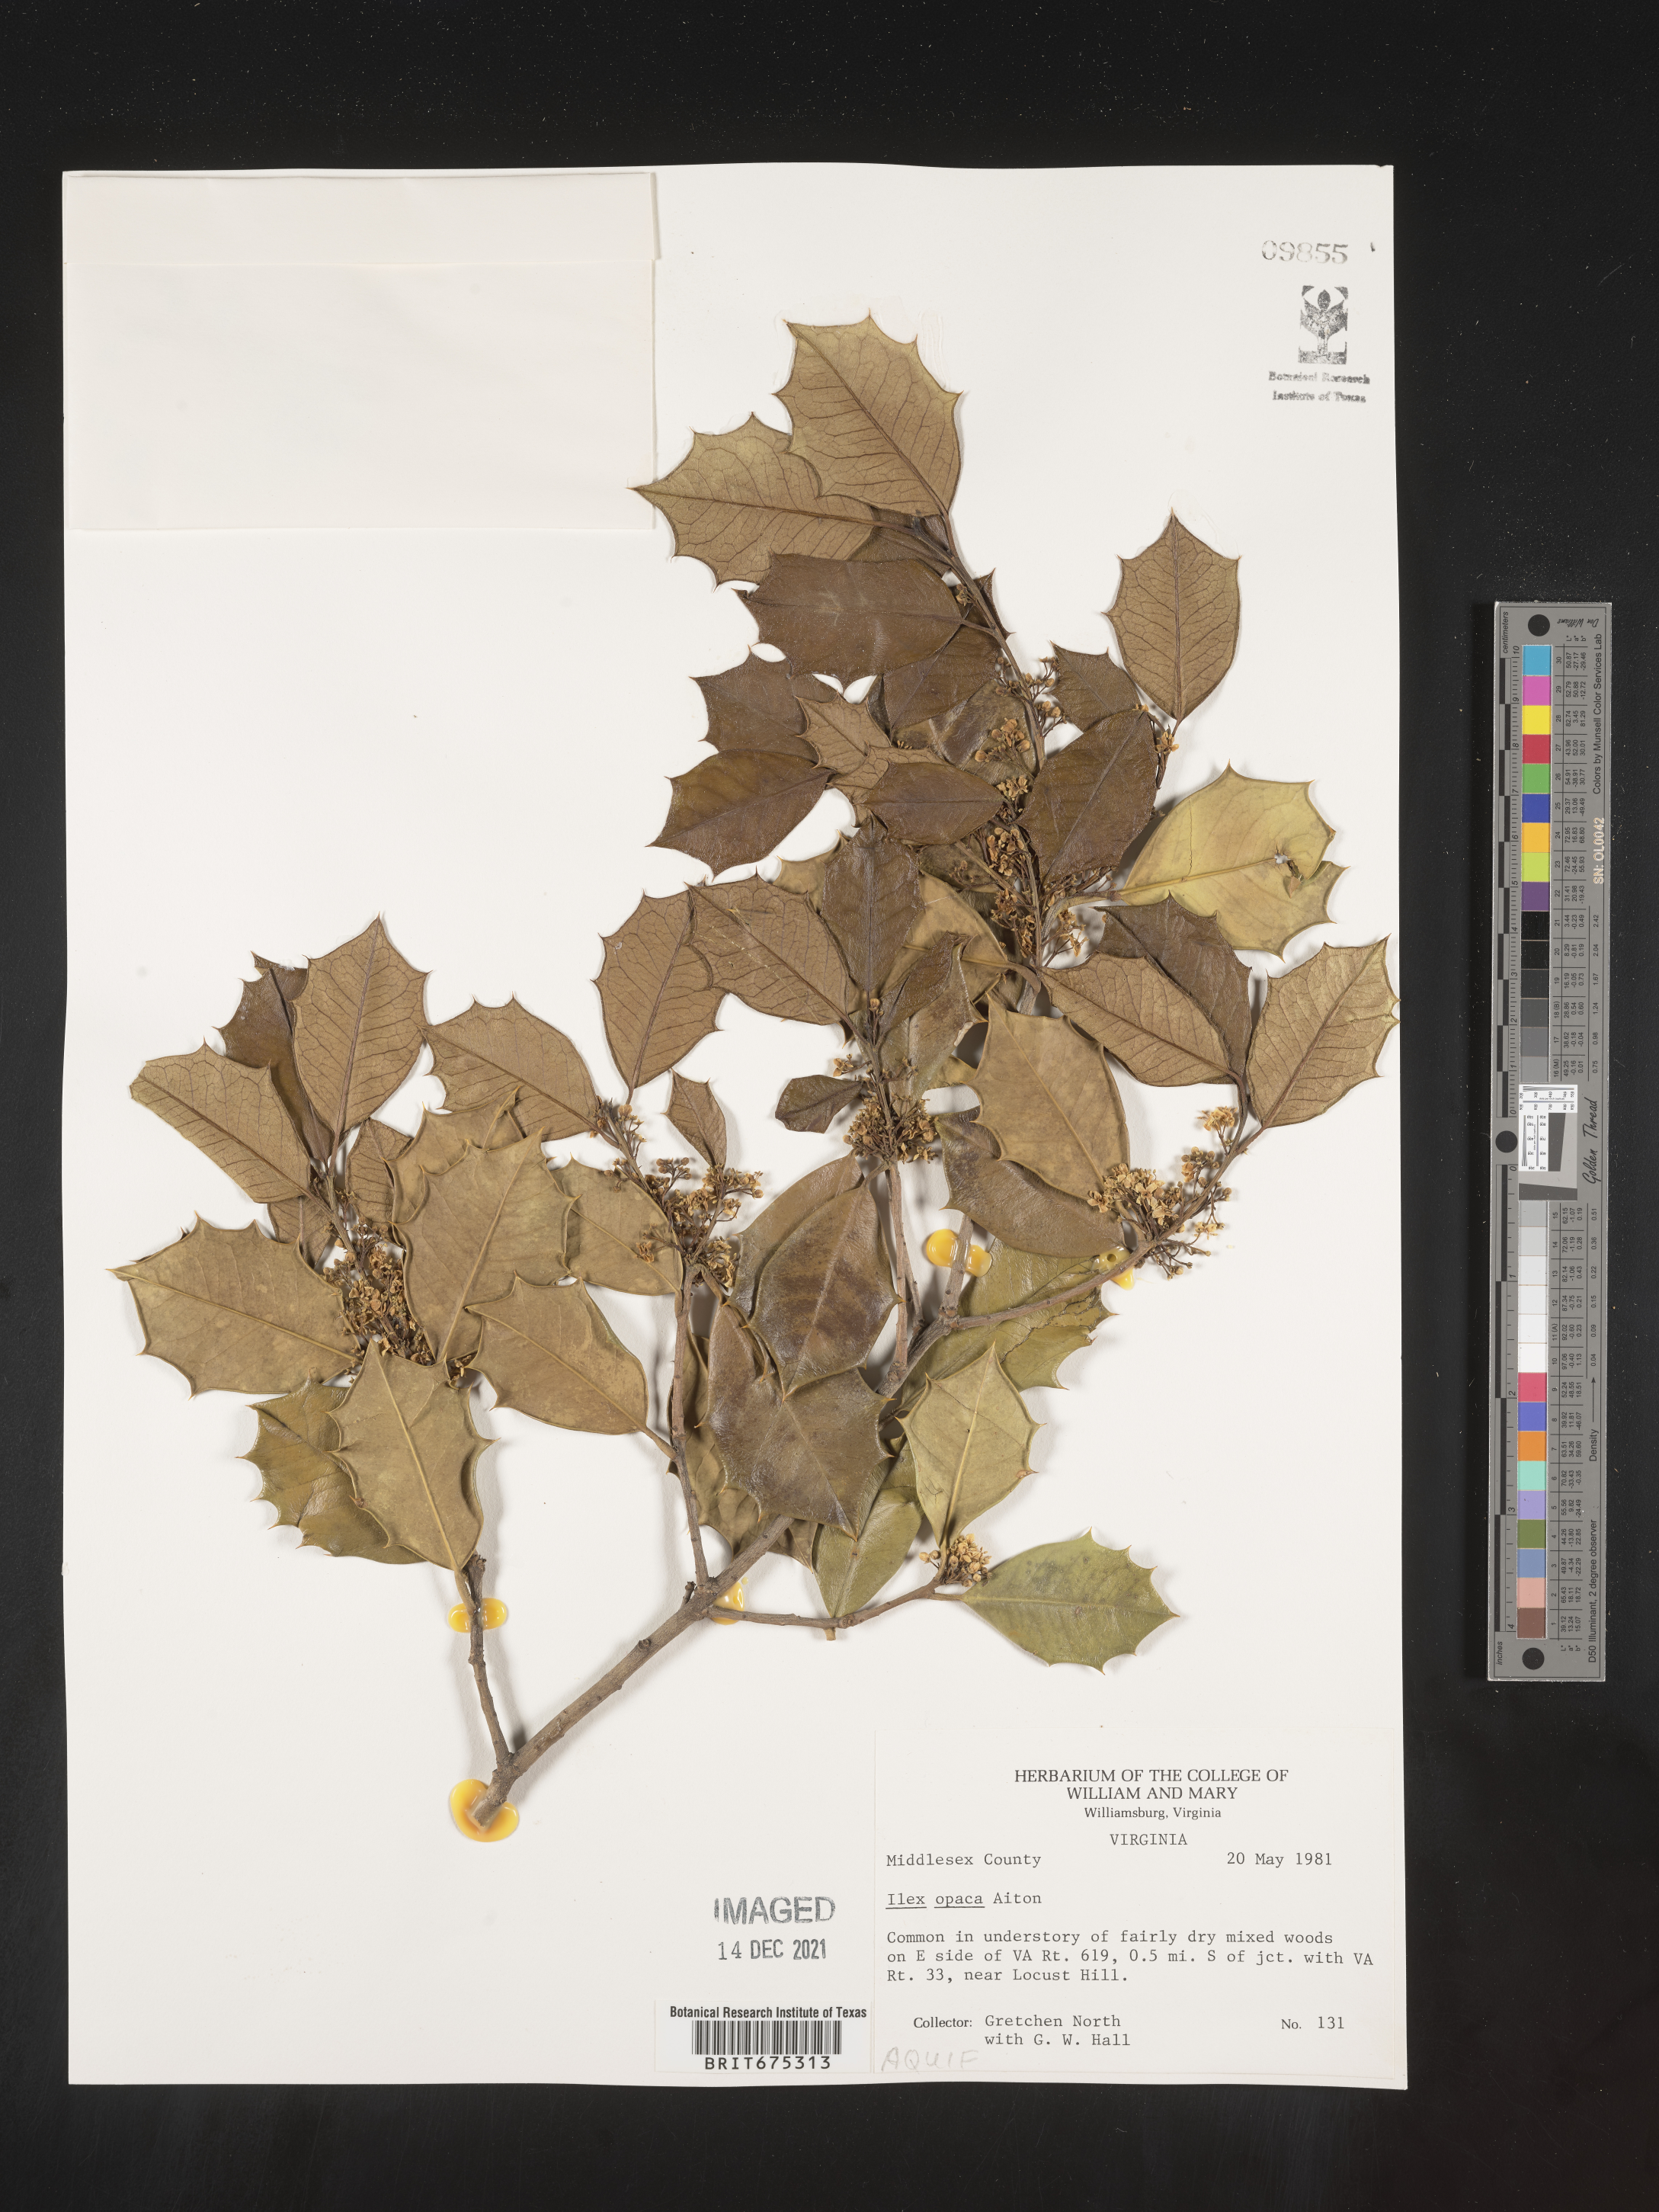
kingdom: Plantae
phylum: Tracheophyta
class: Magnoliopsida
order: Aquifoliales
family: Aquifoliaceae
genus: Ilex
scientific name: Ilex opaca
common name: American holly
